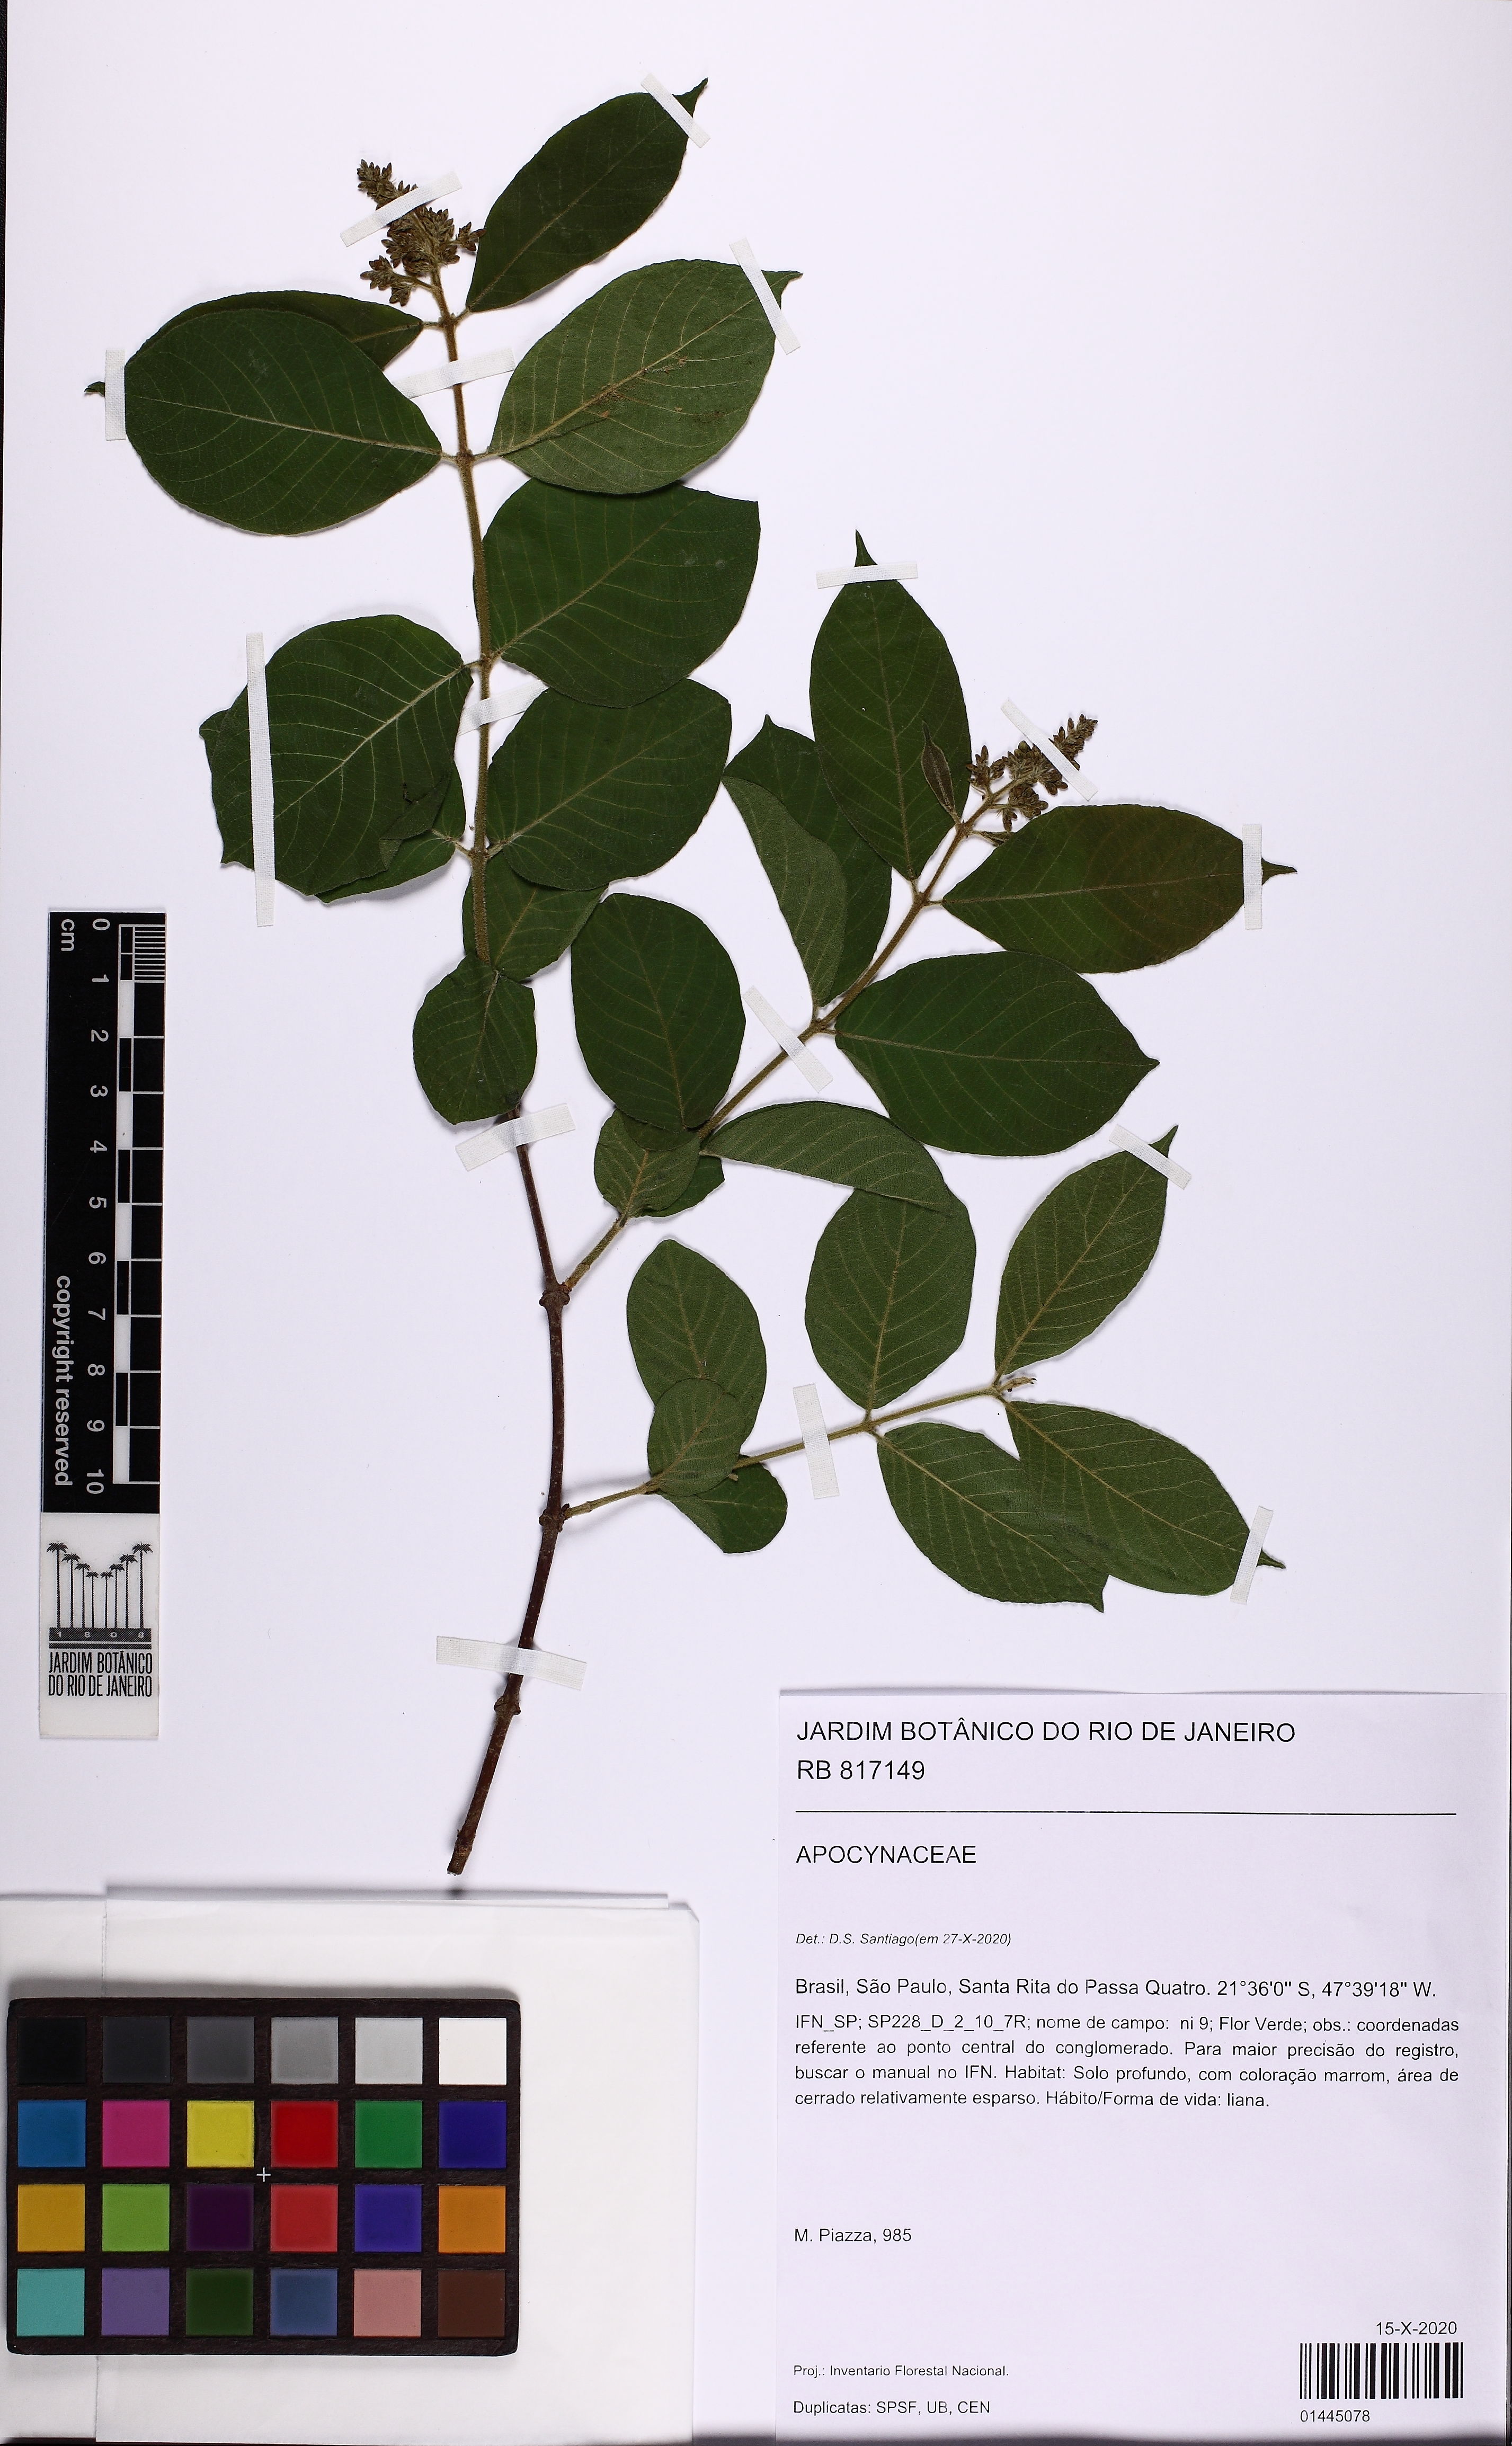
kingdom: Plantae
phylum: Tracheophyta
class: Magnoliopsida
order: Gentianales
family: Apocynaceae
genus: Forsteronia
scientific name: Forsteronia pubescens
